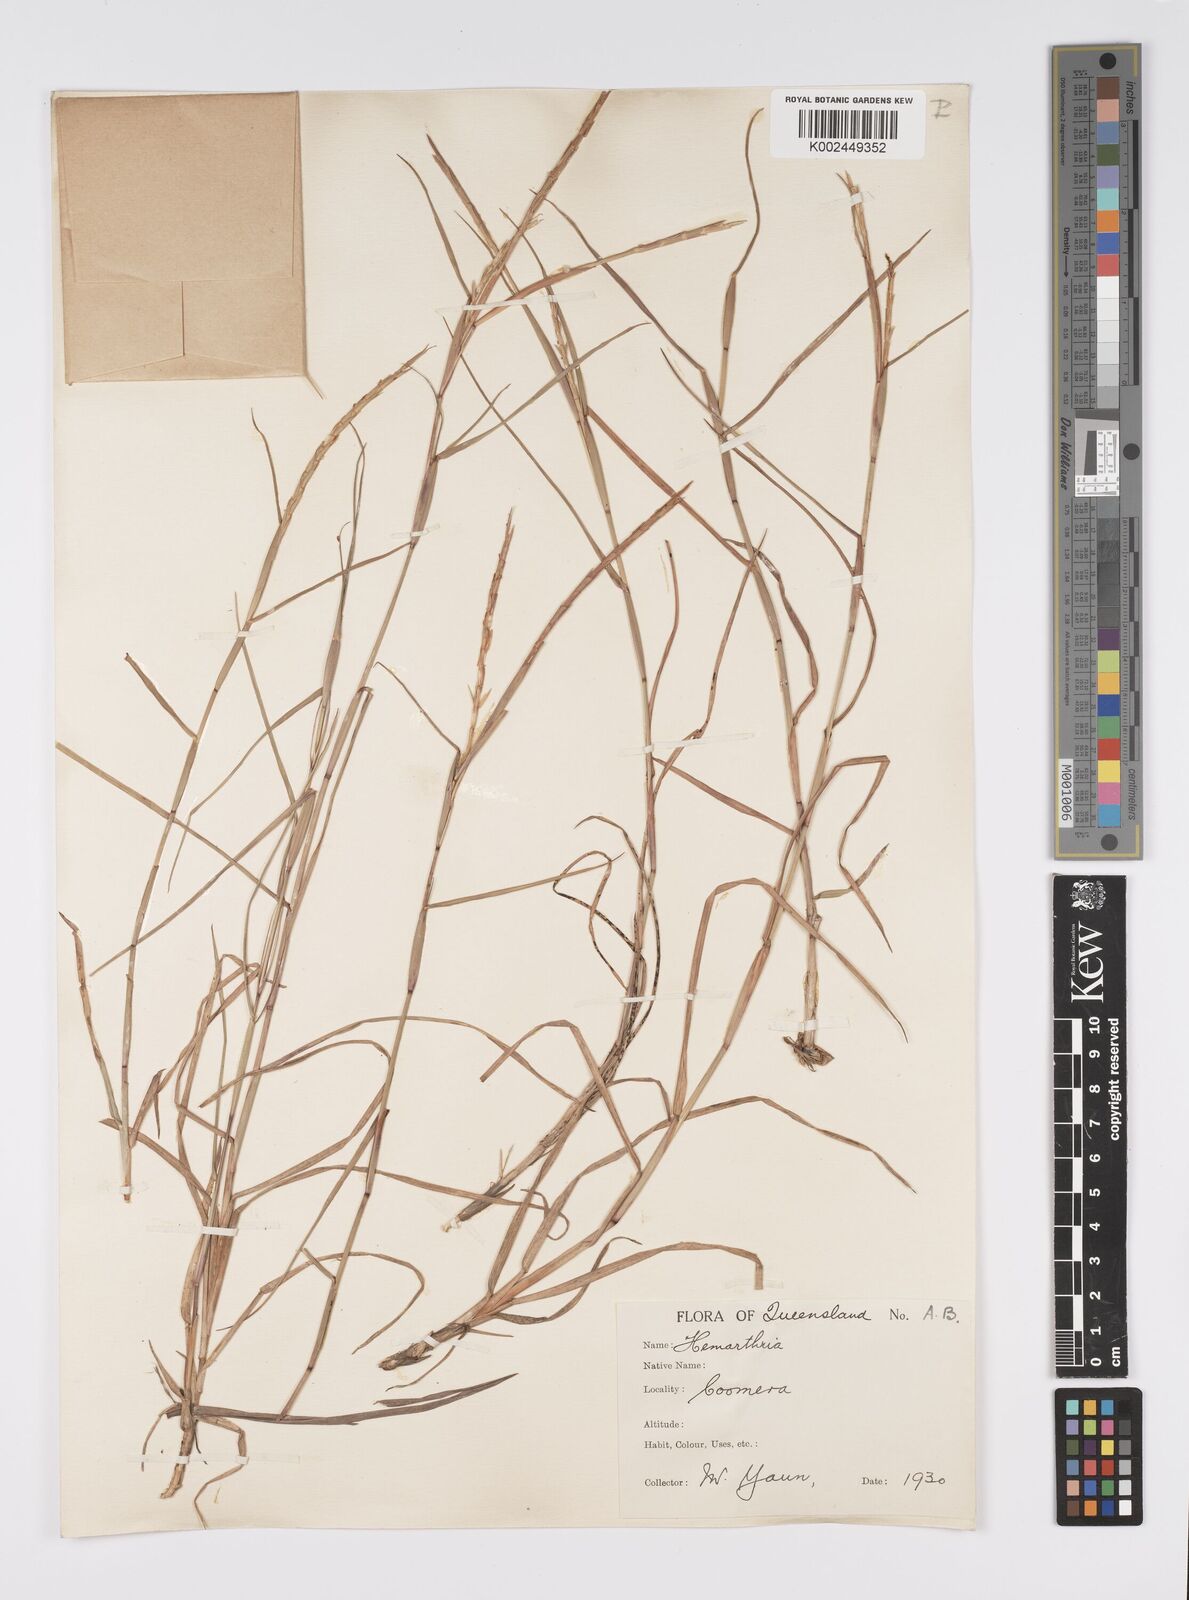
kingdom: Plantae
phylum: Tracheophyta
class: Liliopsida
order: Poales
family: Poaceae
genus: Hemarthria
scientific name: Hemarthria uncinata
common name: Matgrass
